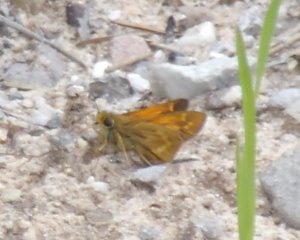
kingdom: Animalia
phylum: Arthropoda
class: Insecta
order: Lepidoptera
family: Hesperiidae
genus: Hesperia
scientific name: Hesperia sassacus
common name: Sassacus Skipper
